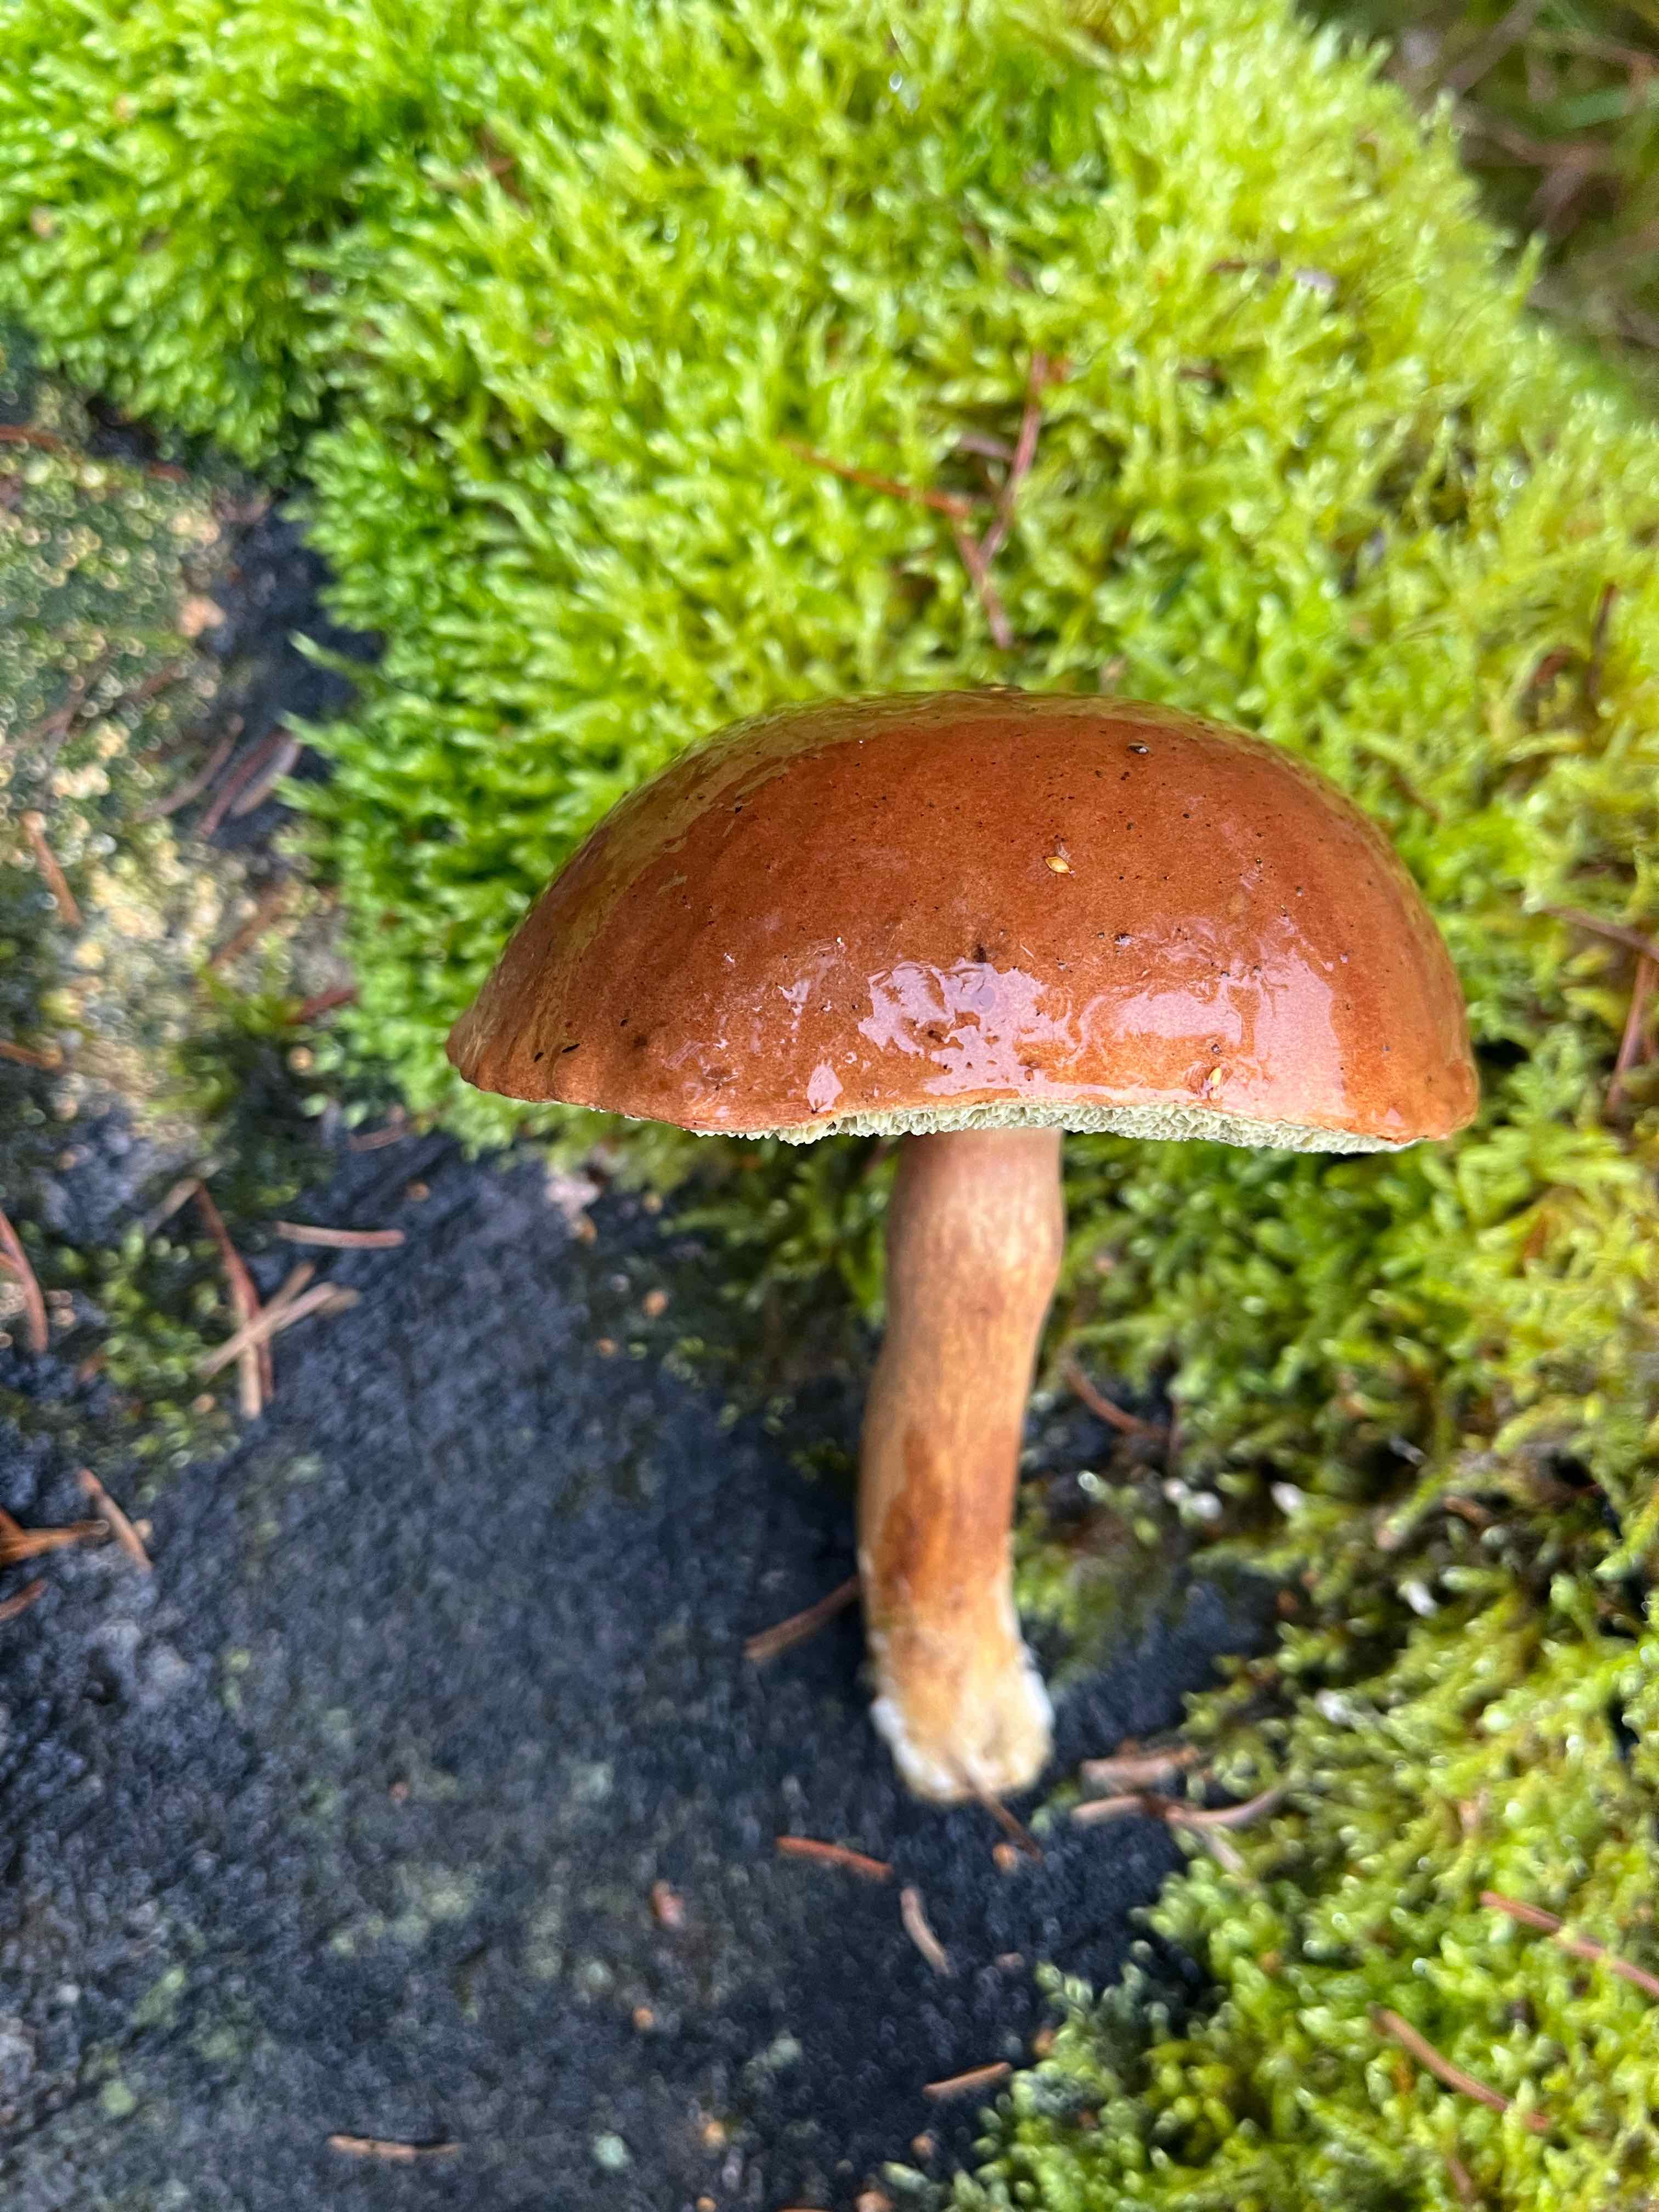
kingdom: Fungi
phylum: Basidiomycota
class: Agaricomycetes
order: Boletales
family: Boletaceae
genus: Imleria
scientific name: Imleria badia
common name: brunstokket rørhat
